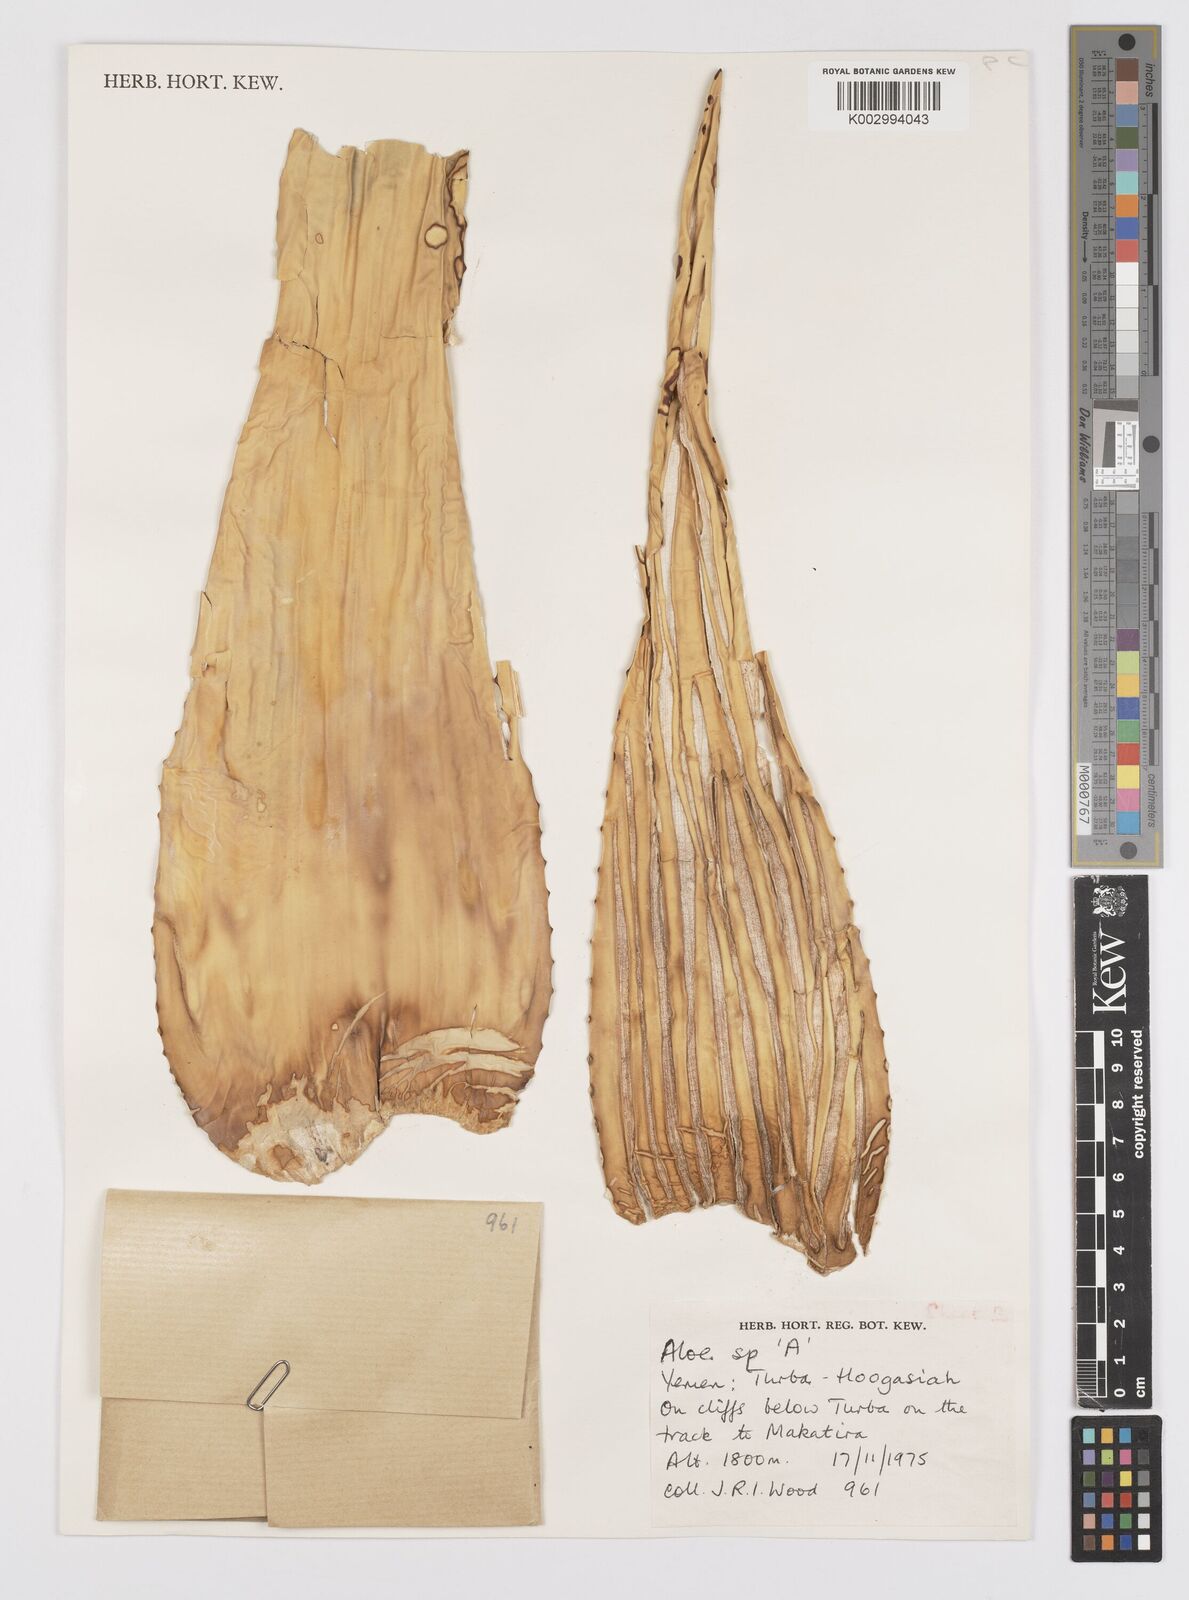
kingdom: Plantae
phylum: Tracheophyta
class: Liliopsida
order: Asparagales
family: Asphodelaceae
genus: Aloe
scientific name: Aloe
